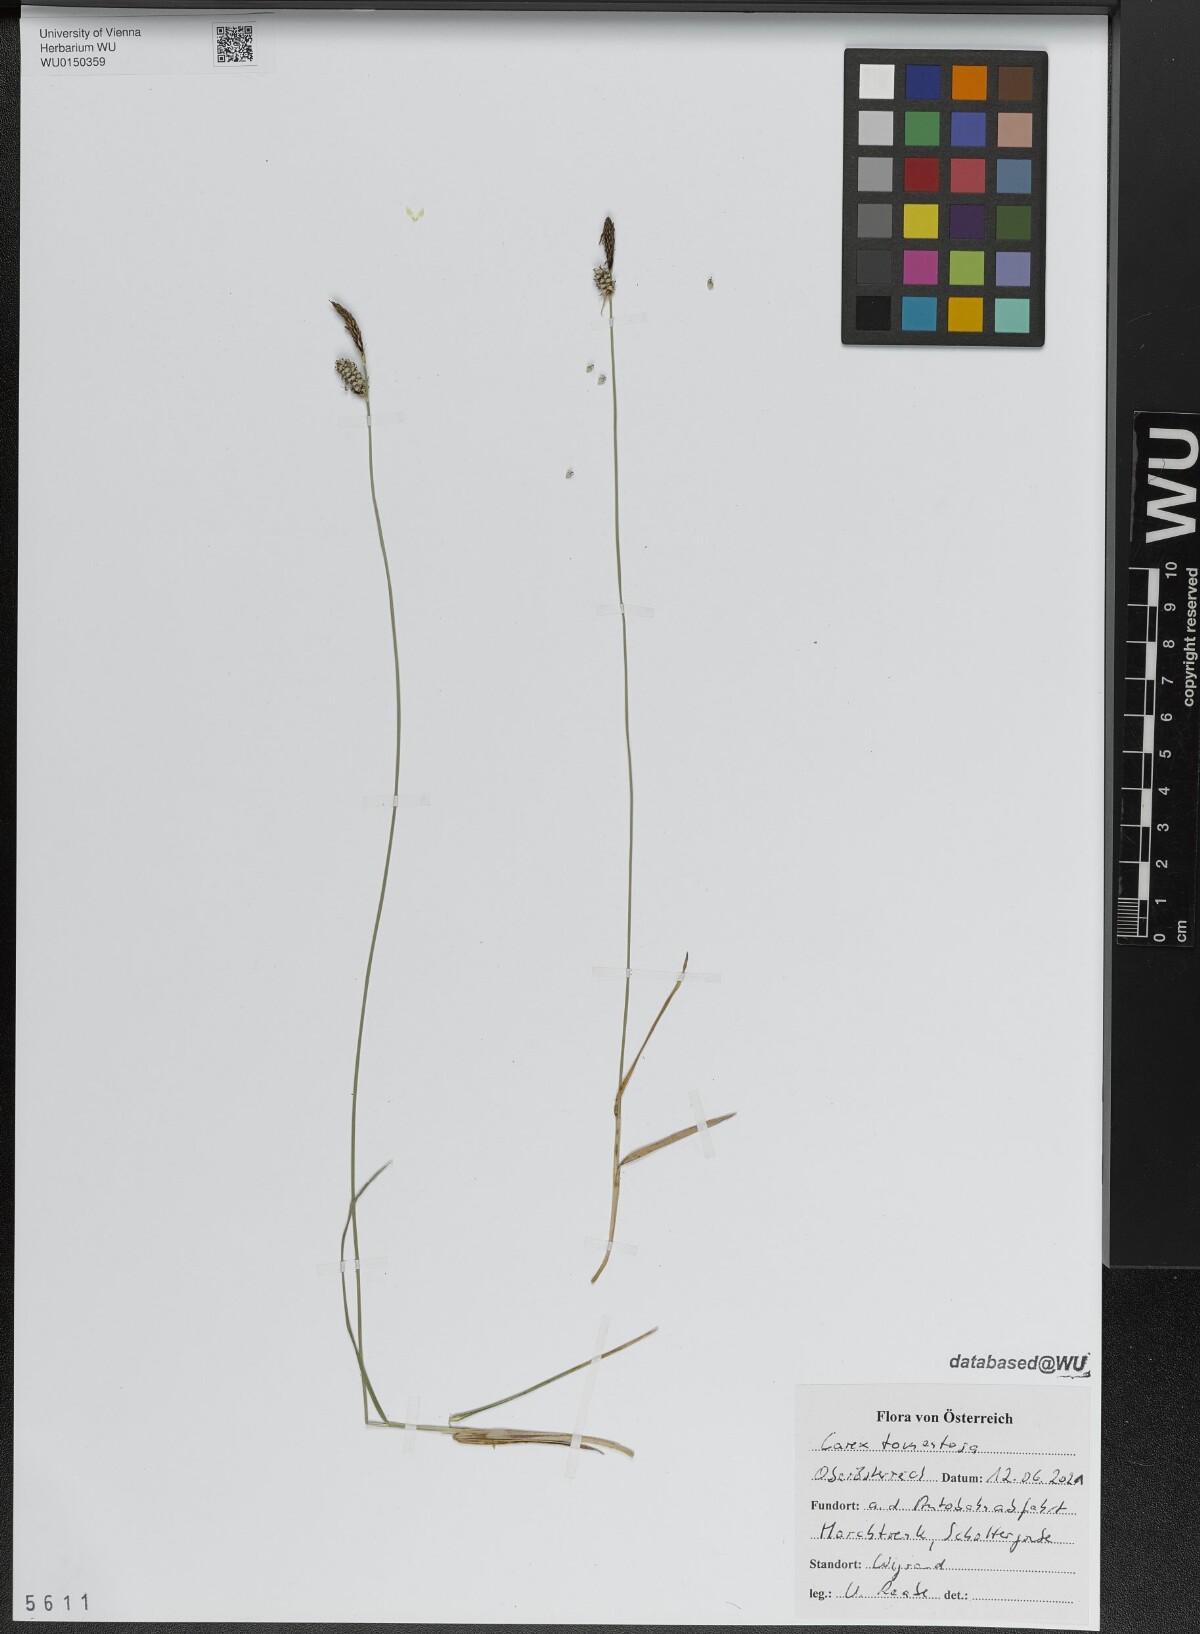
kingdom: Plantae
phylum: Tracheophyta
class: Liliopsida
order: Poales
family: Cyperaceae
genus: Carex
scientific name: Carex tomentosa
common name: Downy-fruited sedge
